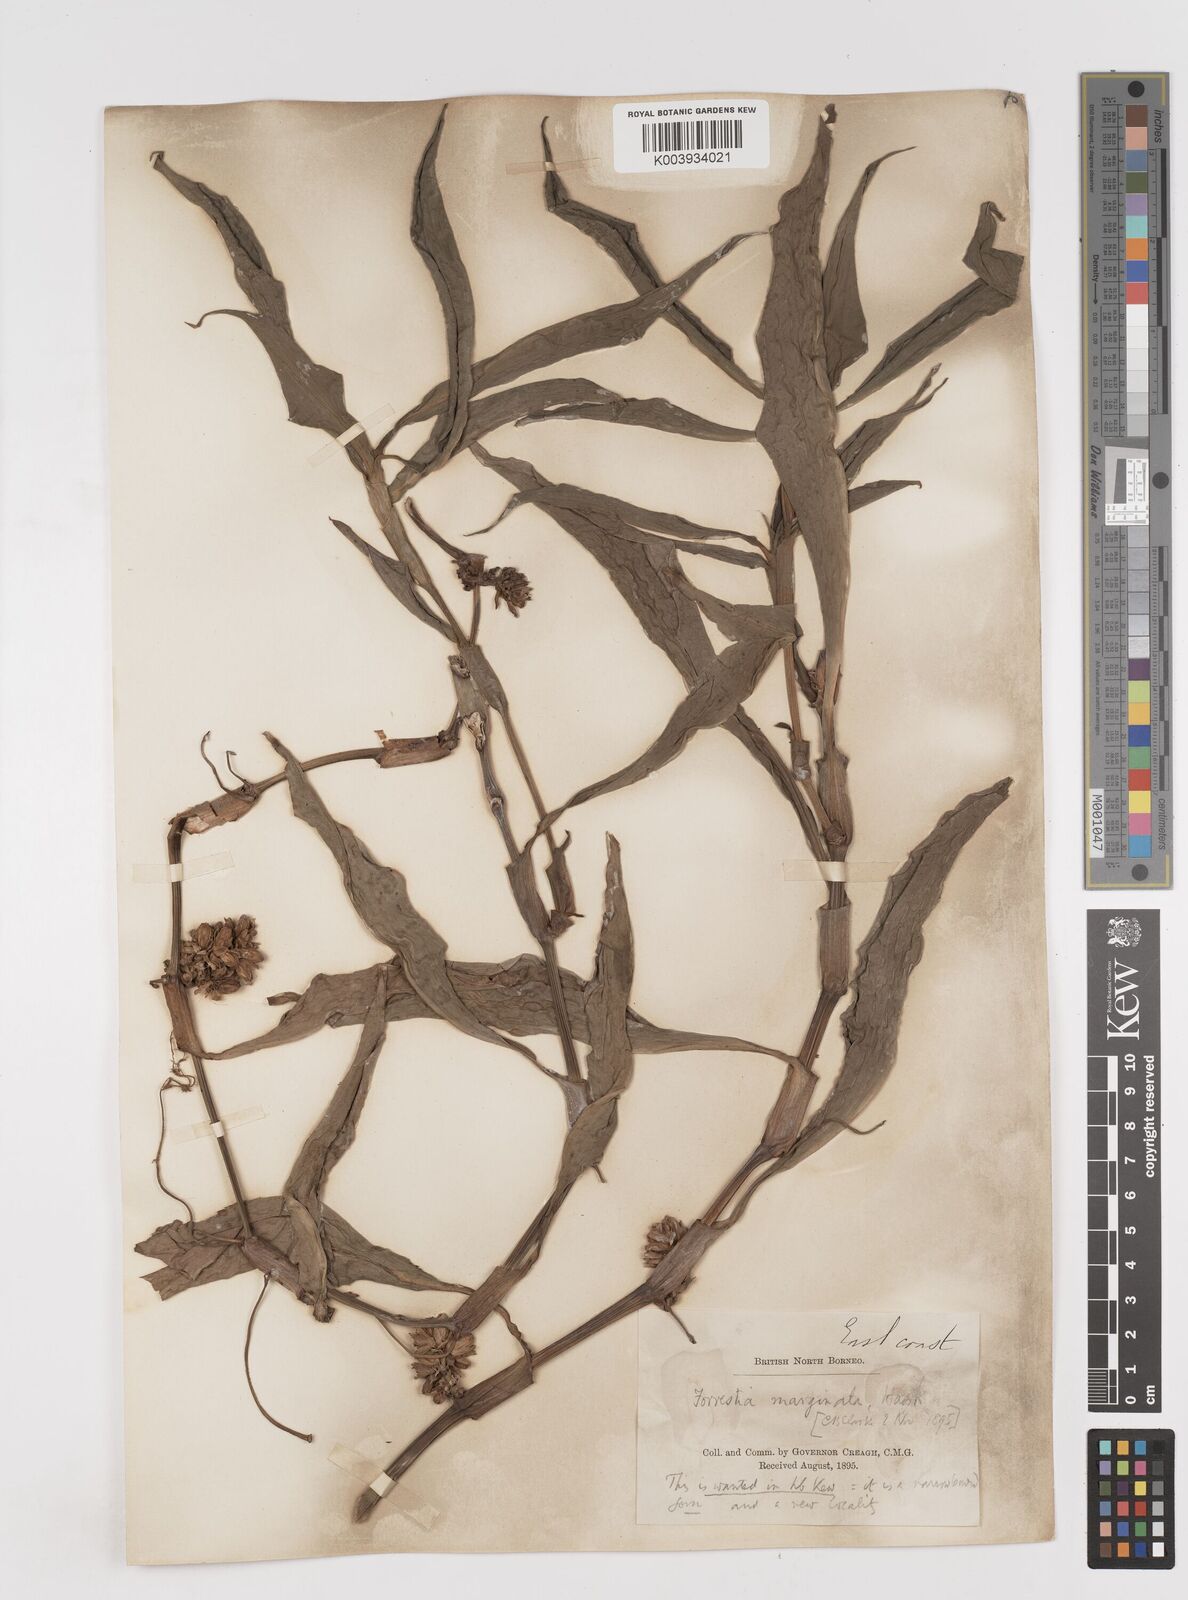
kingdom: Plantae
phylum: Tracheophyta
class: Liliopsida
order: Commelinales
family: Commelinaceae
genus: Amischotolype
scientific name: Amischotolype marginata
